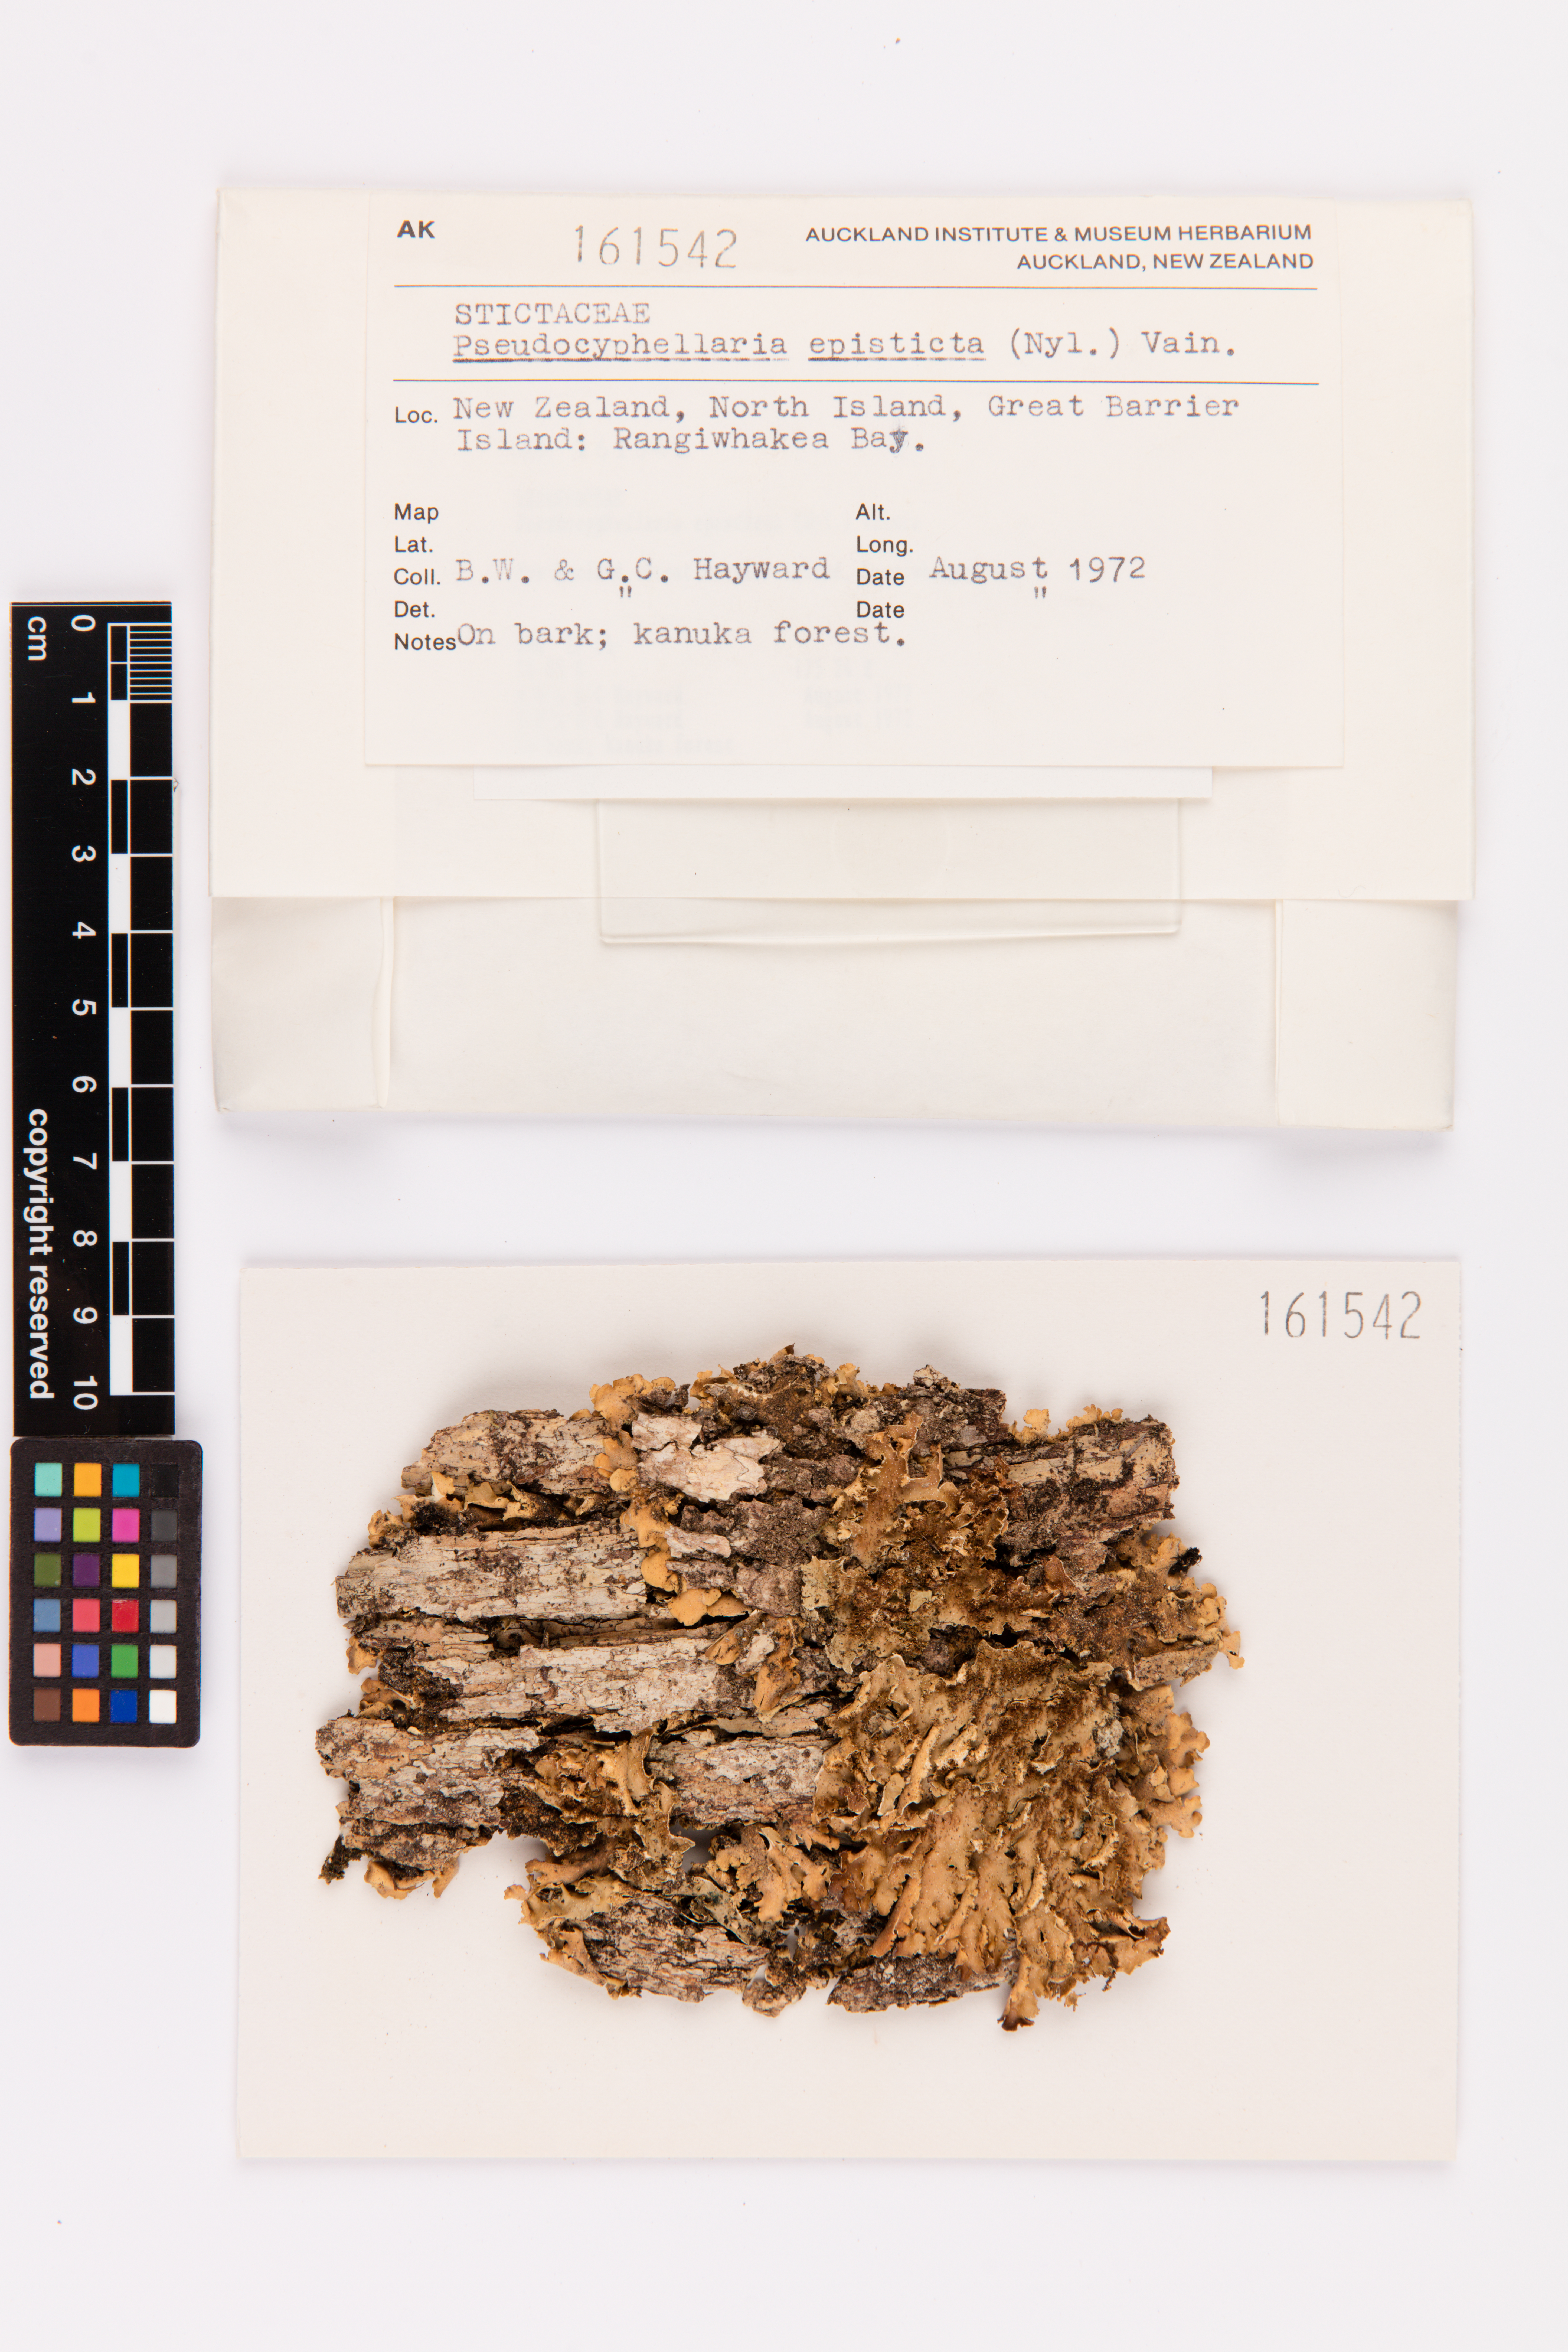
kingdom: Fungi
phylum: Ascomycota
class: Lecanoromycetes
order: Peltigerales
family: Lobariaceae
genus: Pseudocyphellaria
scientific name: Pseudocyphellaria episticta
